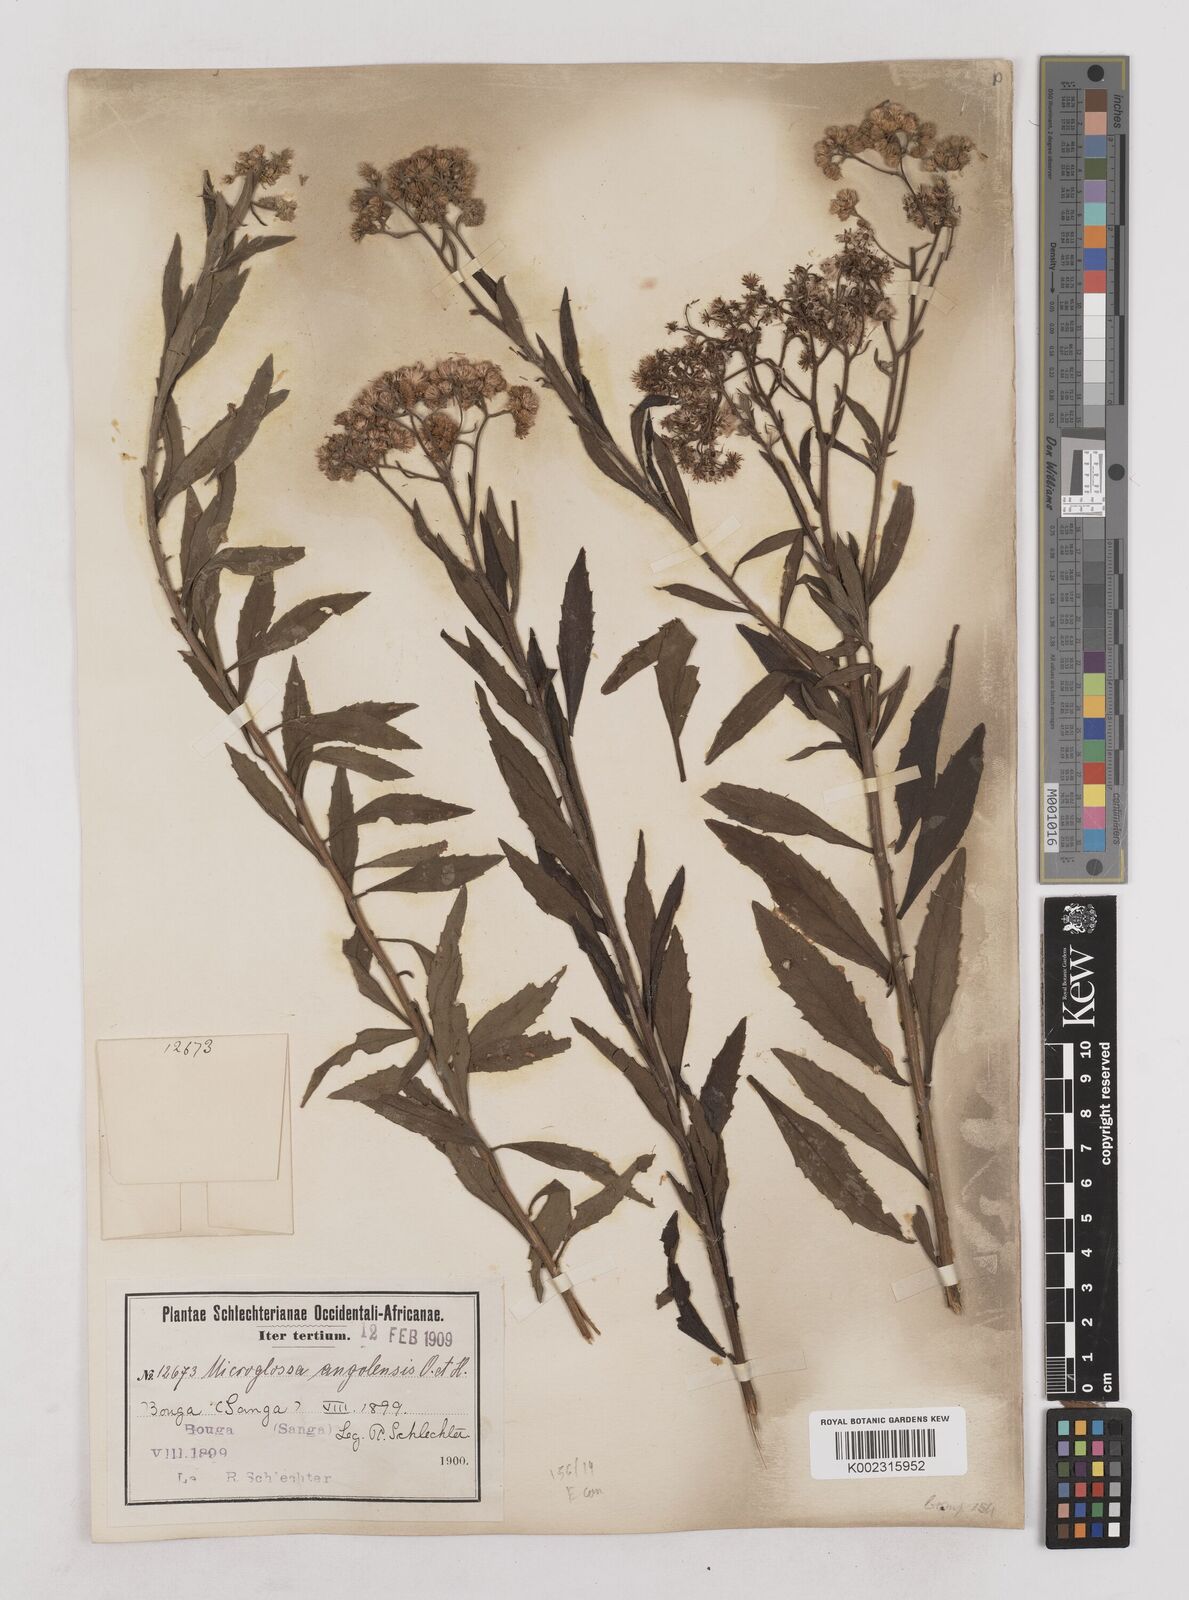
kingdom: Plantae
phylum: Tracheophyta
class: Magnoliopsida
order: Asterales
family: Asteraceae
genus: Microglossa
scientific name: Microglossa pyrrhopappa
